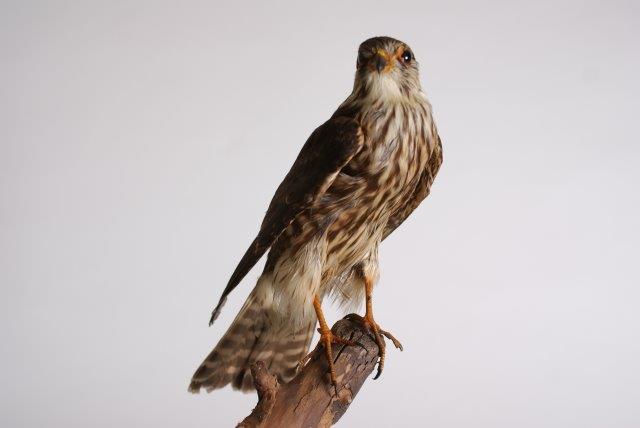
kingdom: Animalia
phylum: Chordata
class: Aves
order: Falconiformes
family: Falconidae
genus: Falco
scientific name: Falco columbarius
